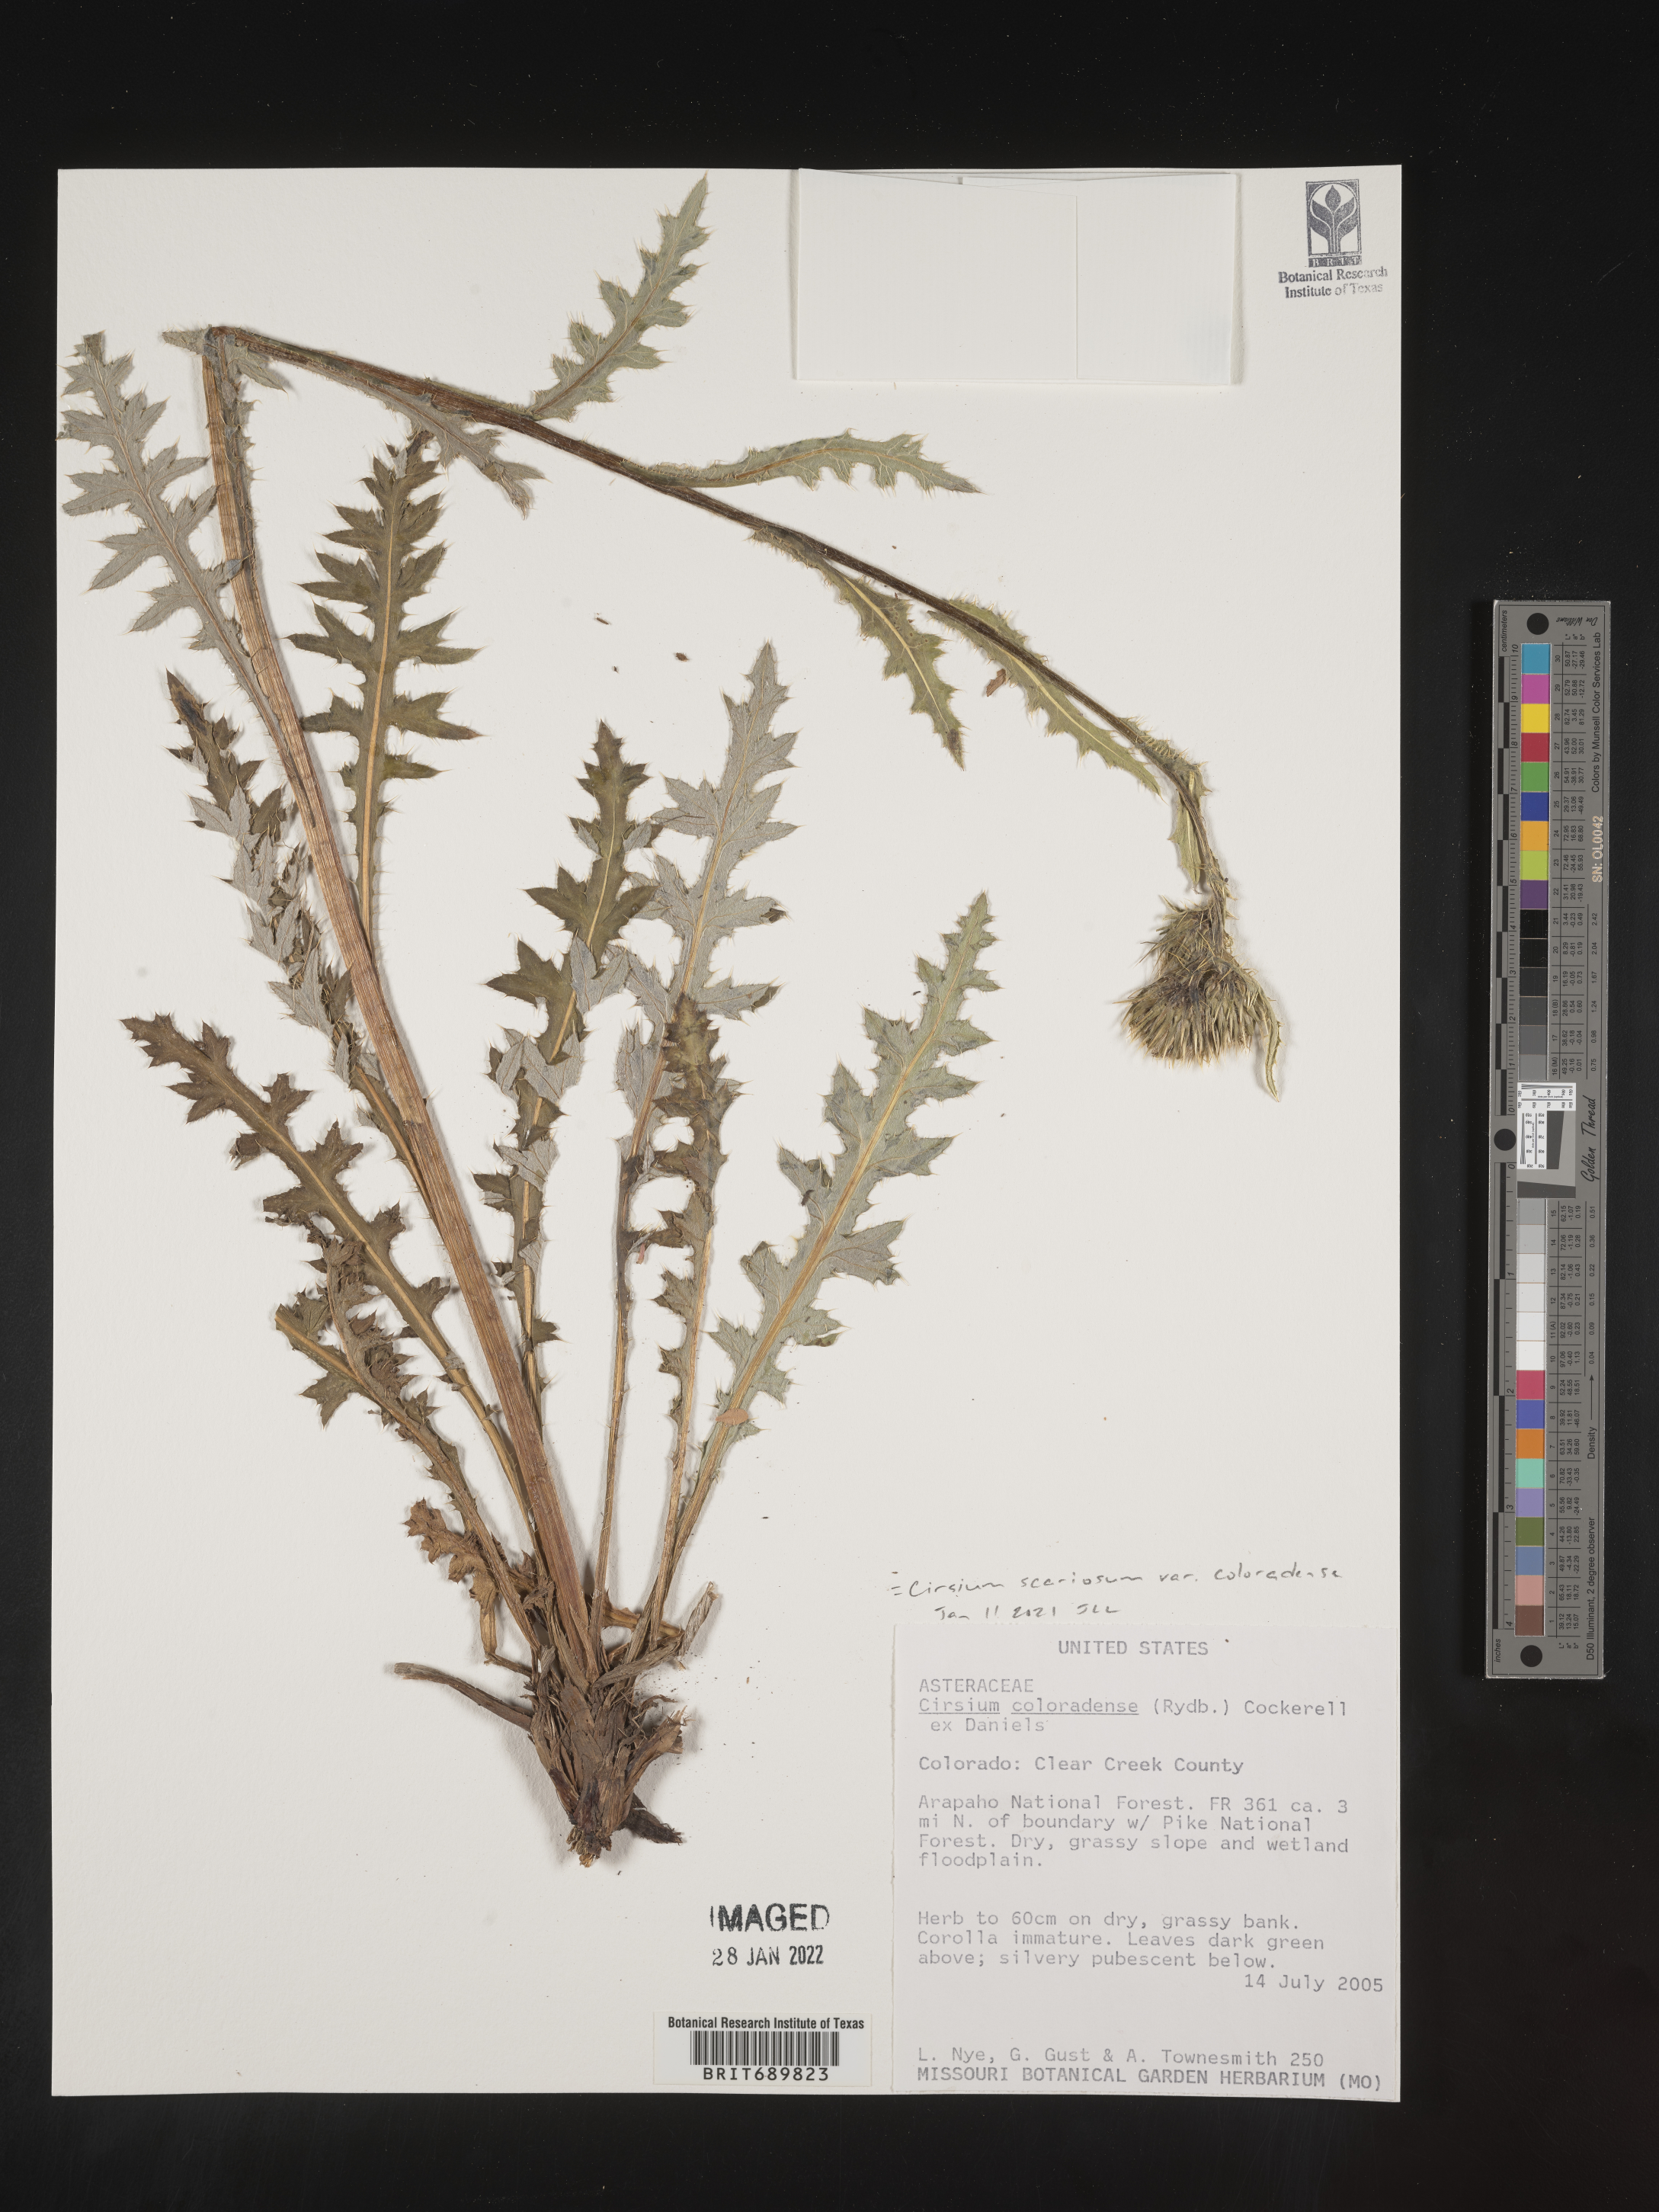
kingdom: Plantae
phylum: Tracheophyta
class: Magnoliopsida
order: Asterales
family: Asteraceae
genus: Cirsium
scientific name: Cirsium scariosum
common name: Meadow thistle
